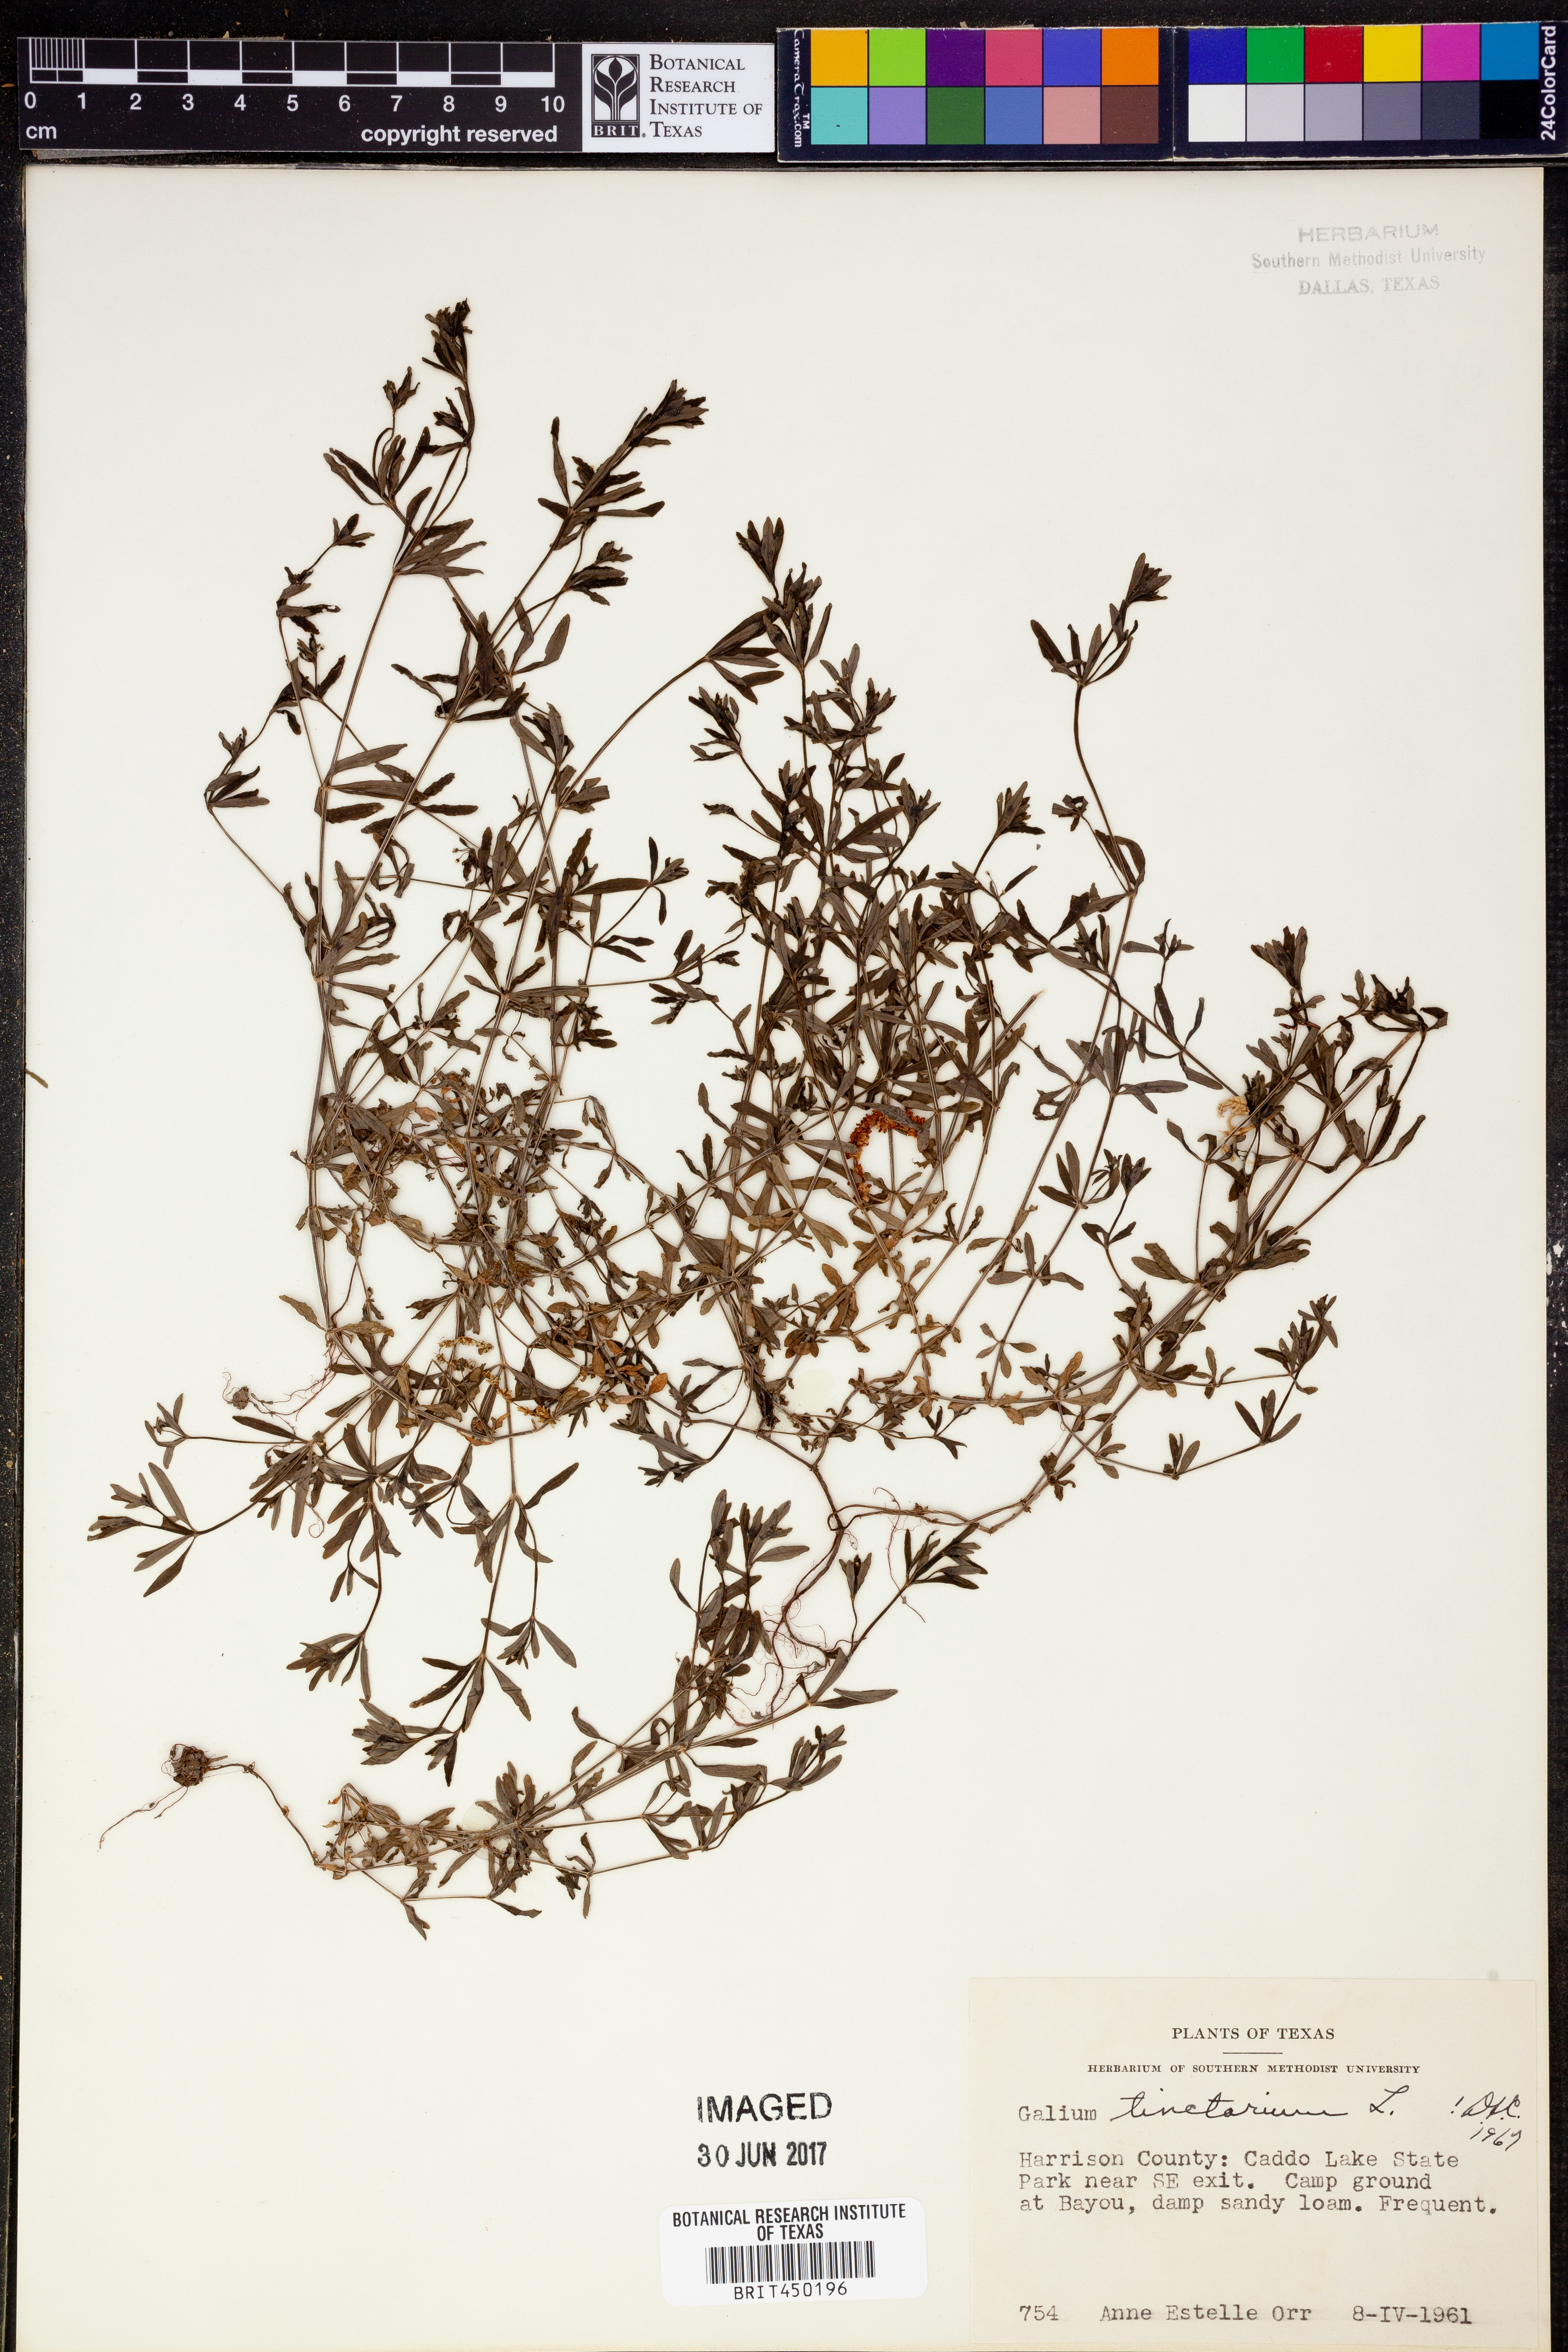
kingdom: Plantae
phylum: Tracheophyta
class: Magnoliopsida
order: Gentianales
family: Rubiaceae
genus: Asperula
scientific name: Asperula tinctoria
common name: Dyer's woodruff
